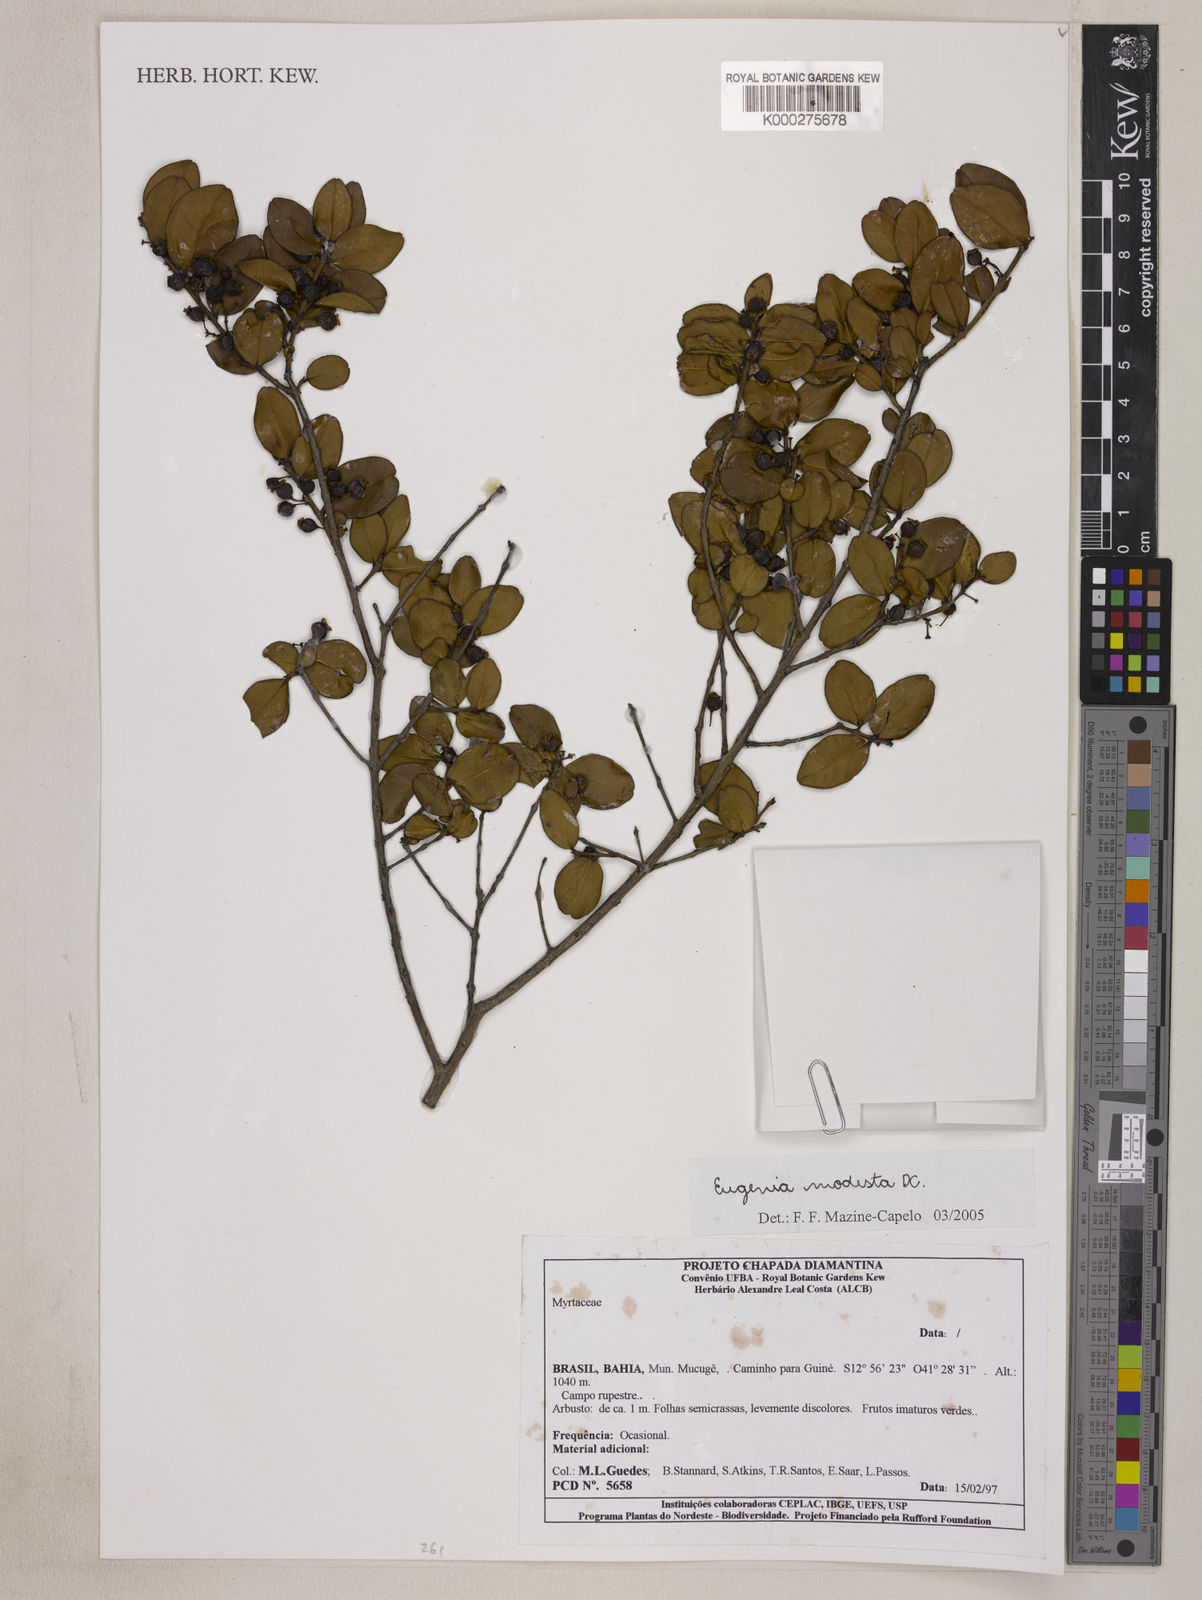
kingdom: Plantae
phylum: Tracheophyta
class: Magnoliopsida
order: Myrtales
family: Myrtaceae
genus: Eugenia
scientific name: Eugenia modesta
